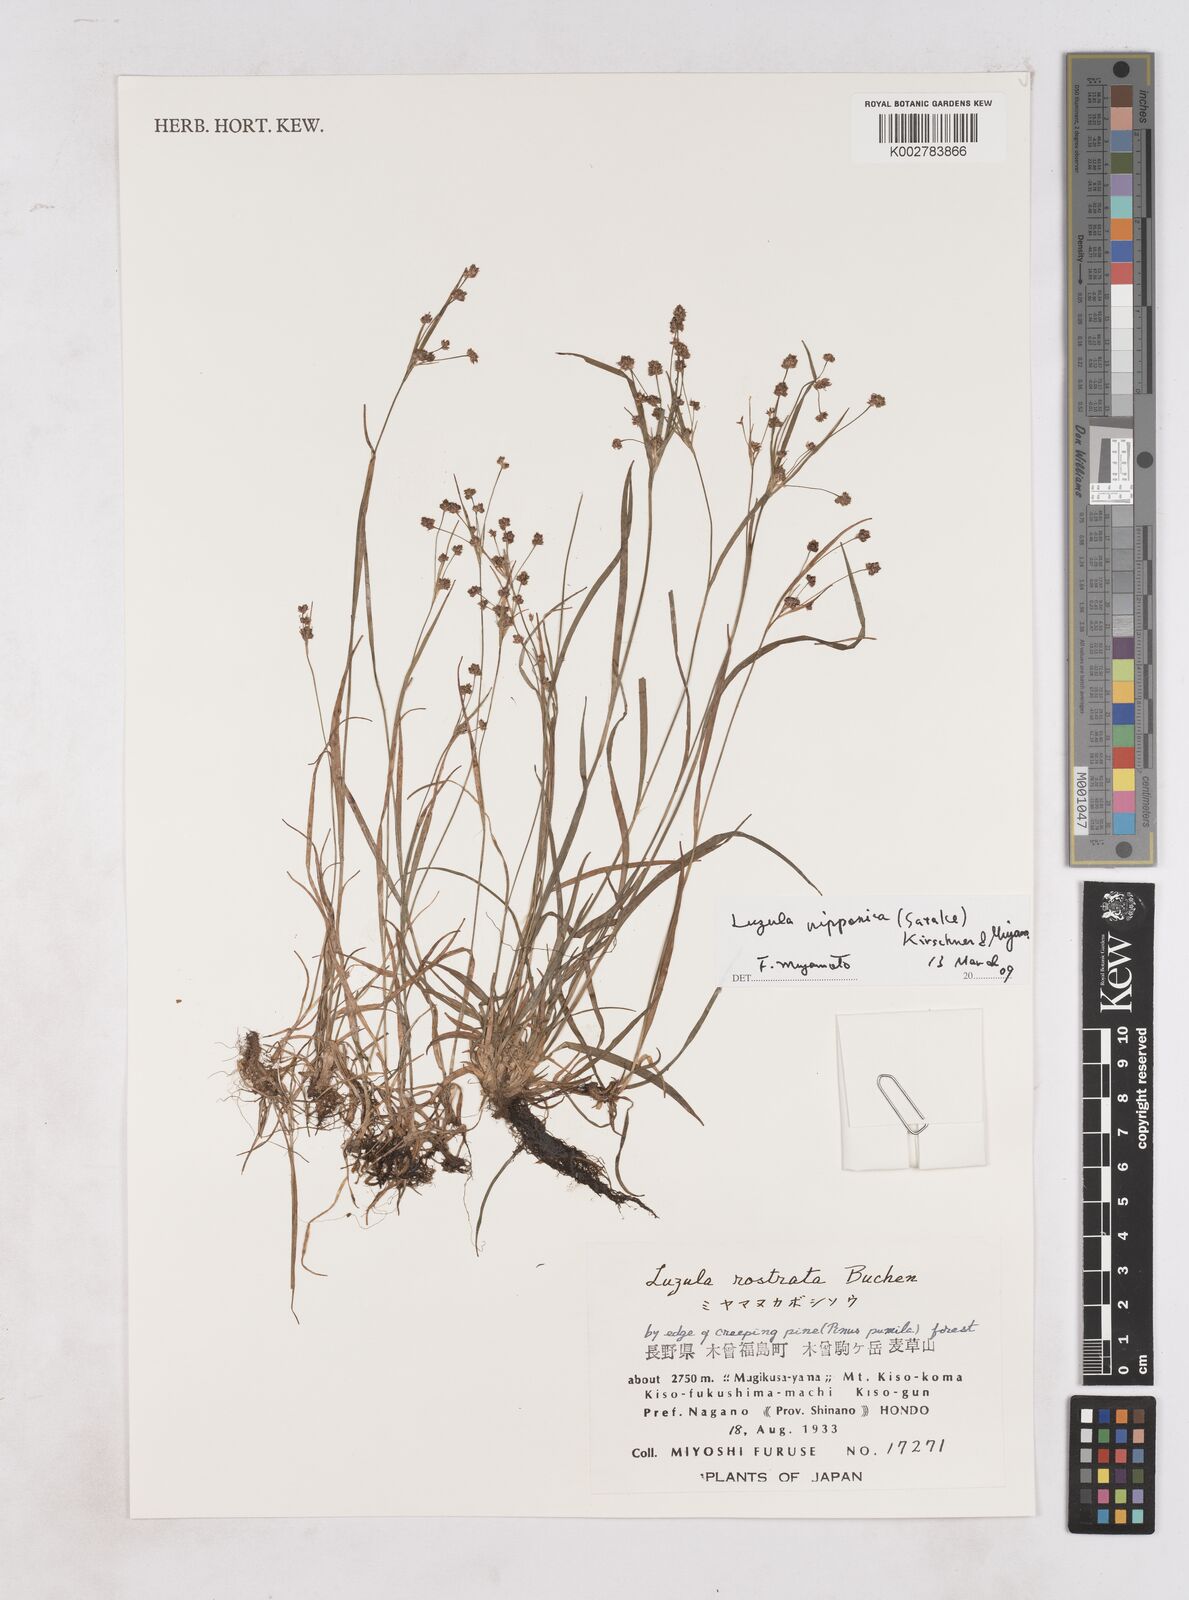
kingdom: Plantae
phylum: Tracheophyta
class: Liliopsida
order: Poales
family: Juncaceae
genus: Luzula
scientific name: Luzula plumosa
